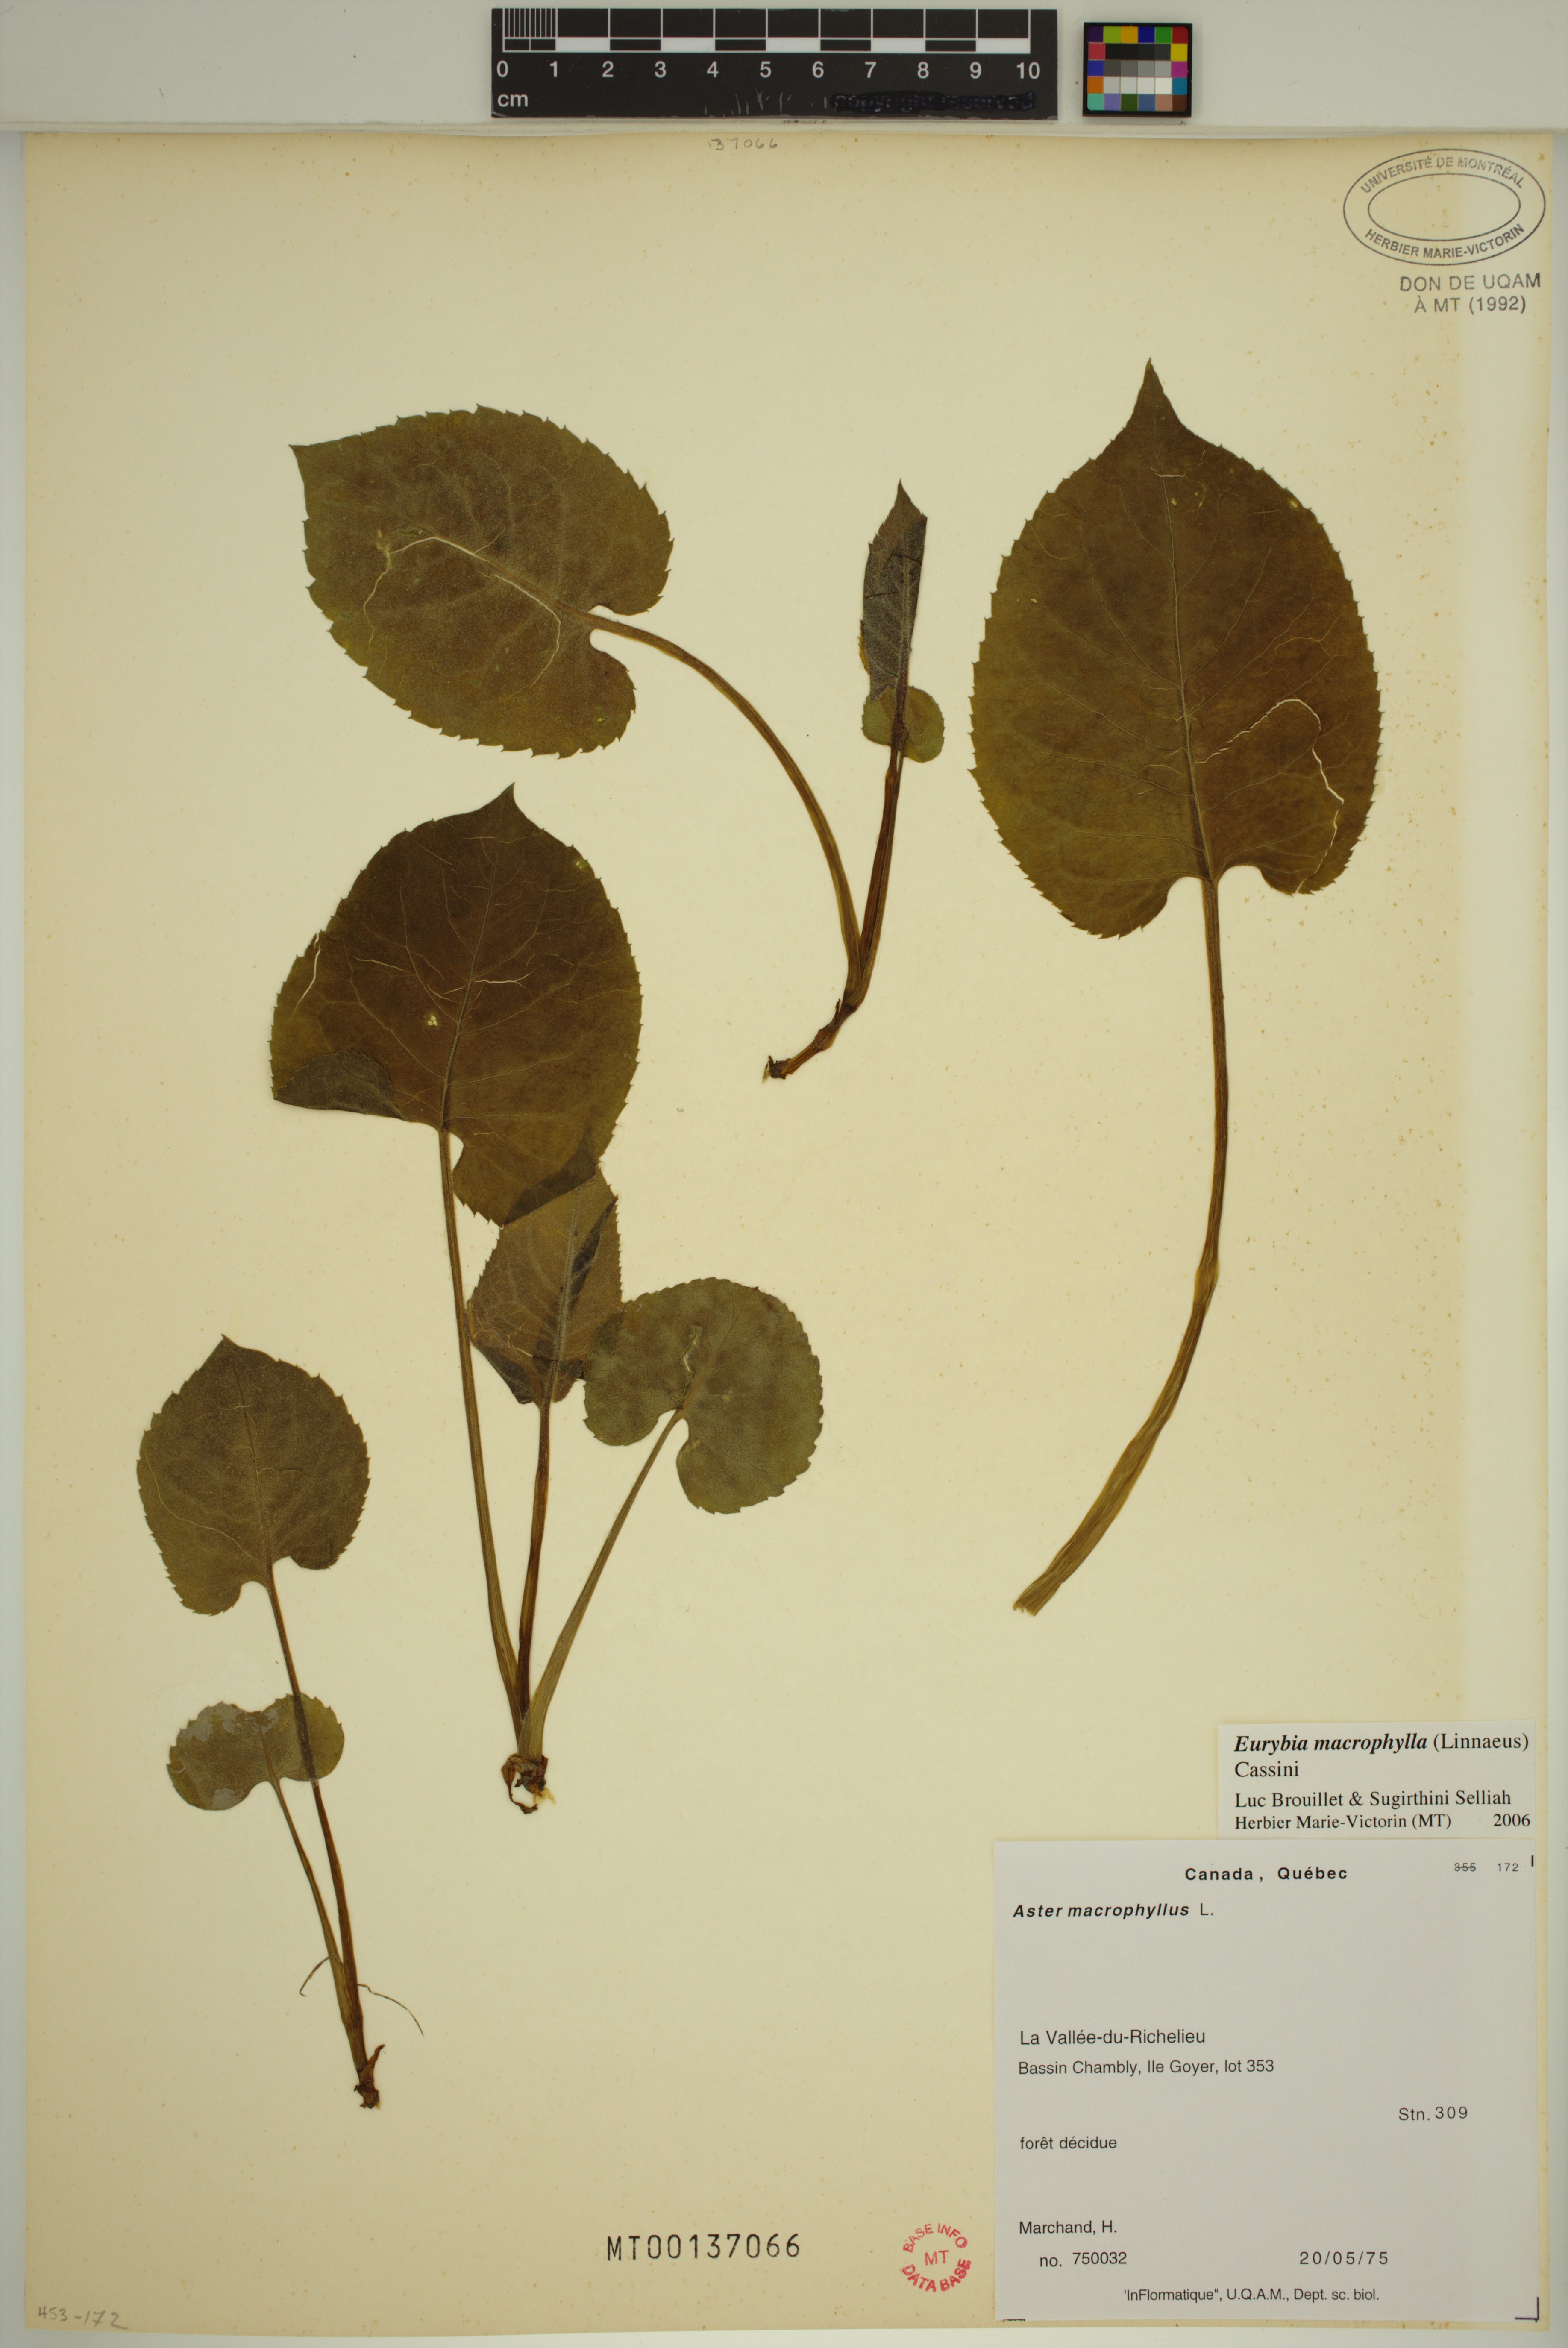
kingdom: Plantae
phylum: Tracheophyta
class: Magnoliopsida
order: Asterales
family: Asteraceae
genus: Eurybia
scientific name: Eurybia macrophylla
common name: Big-leaved aster
